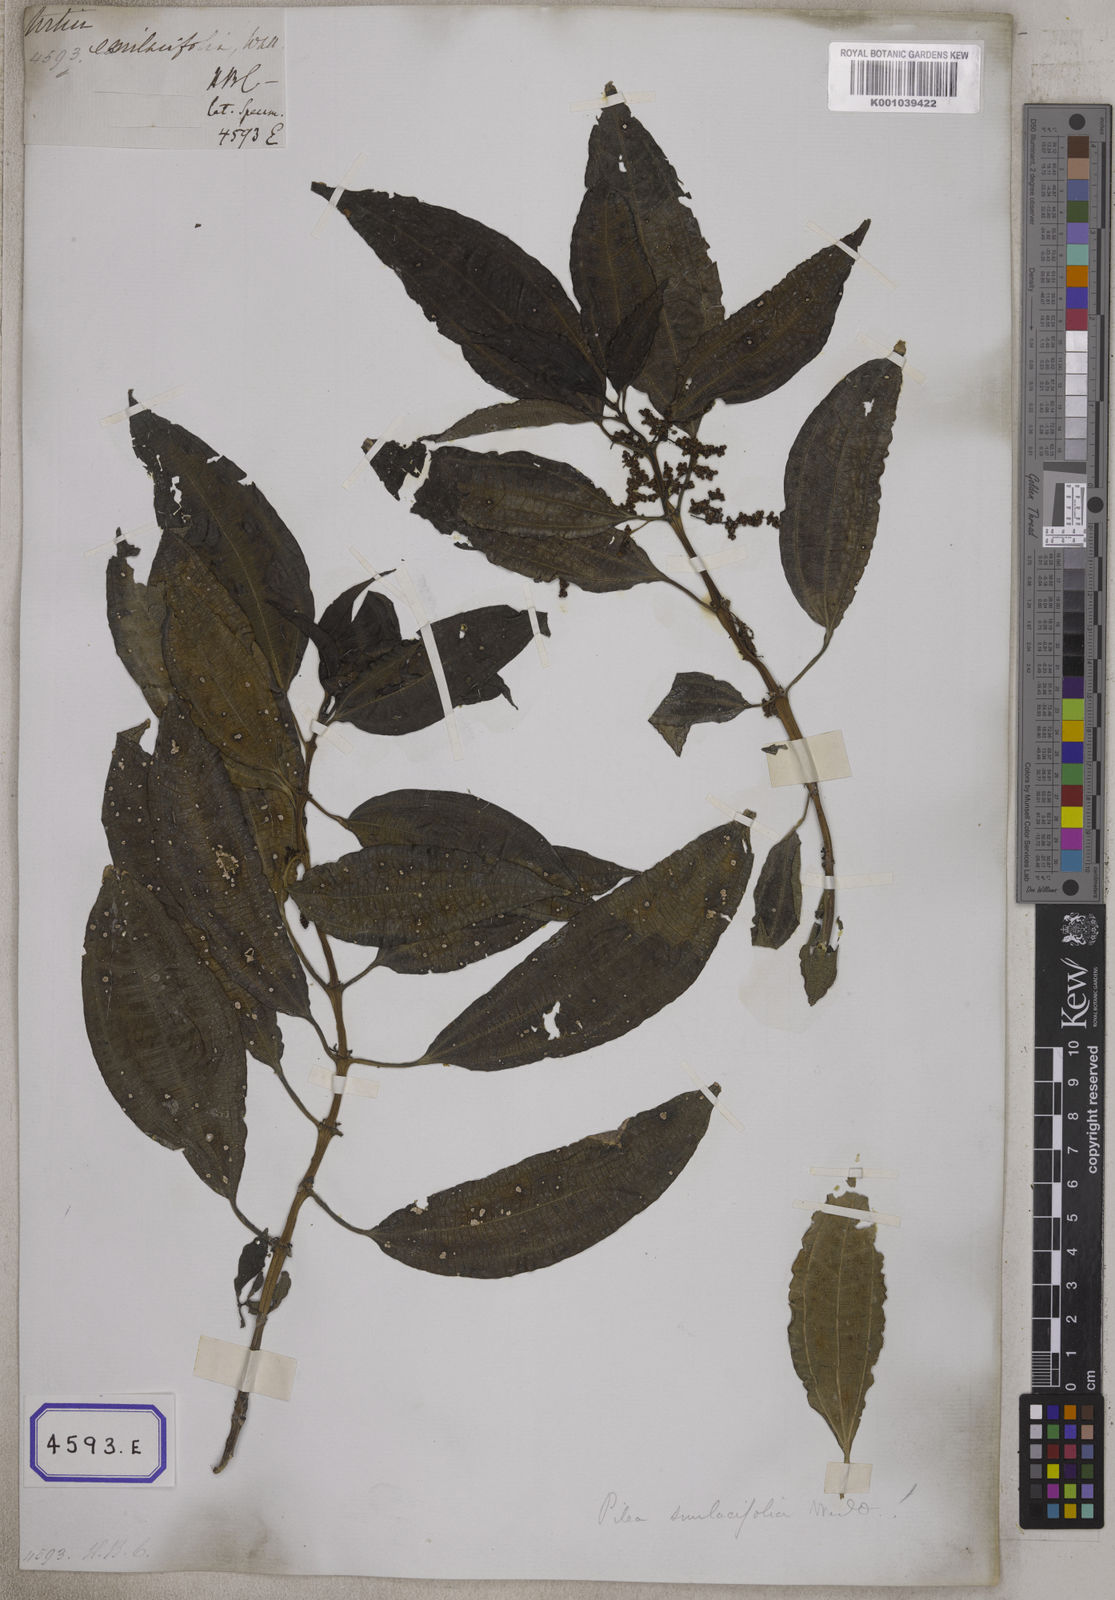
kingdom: Plantae
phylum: Tracheophyta
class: Magnoliopsida
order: Rosales
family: Urticaceae
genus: Urtica
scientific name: Urtica
